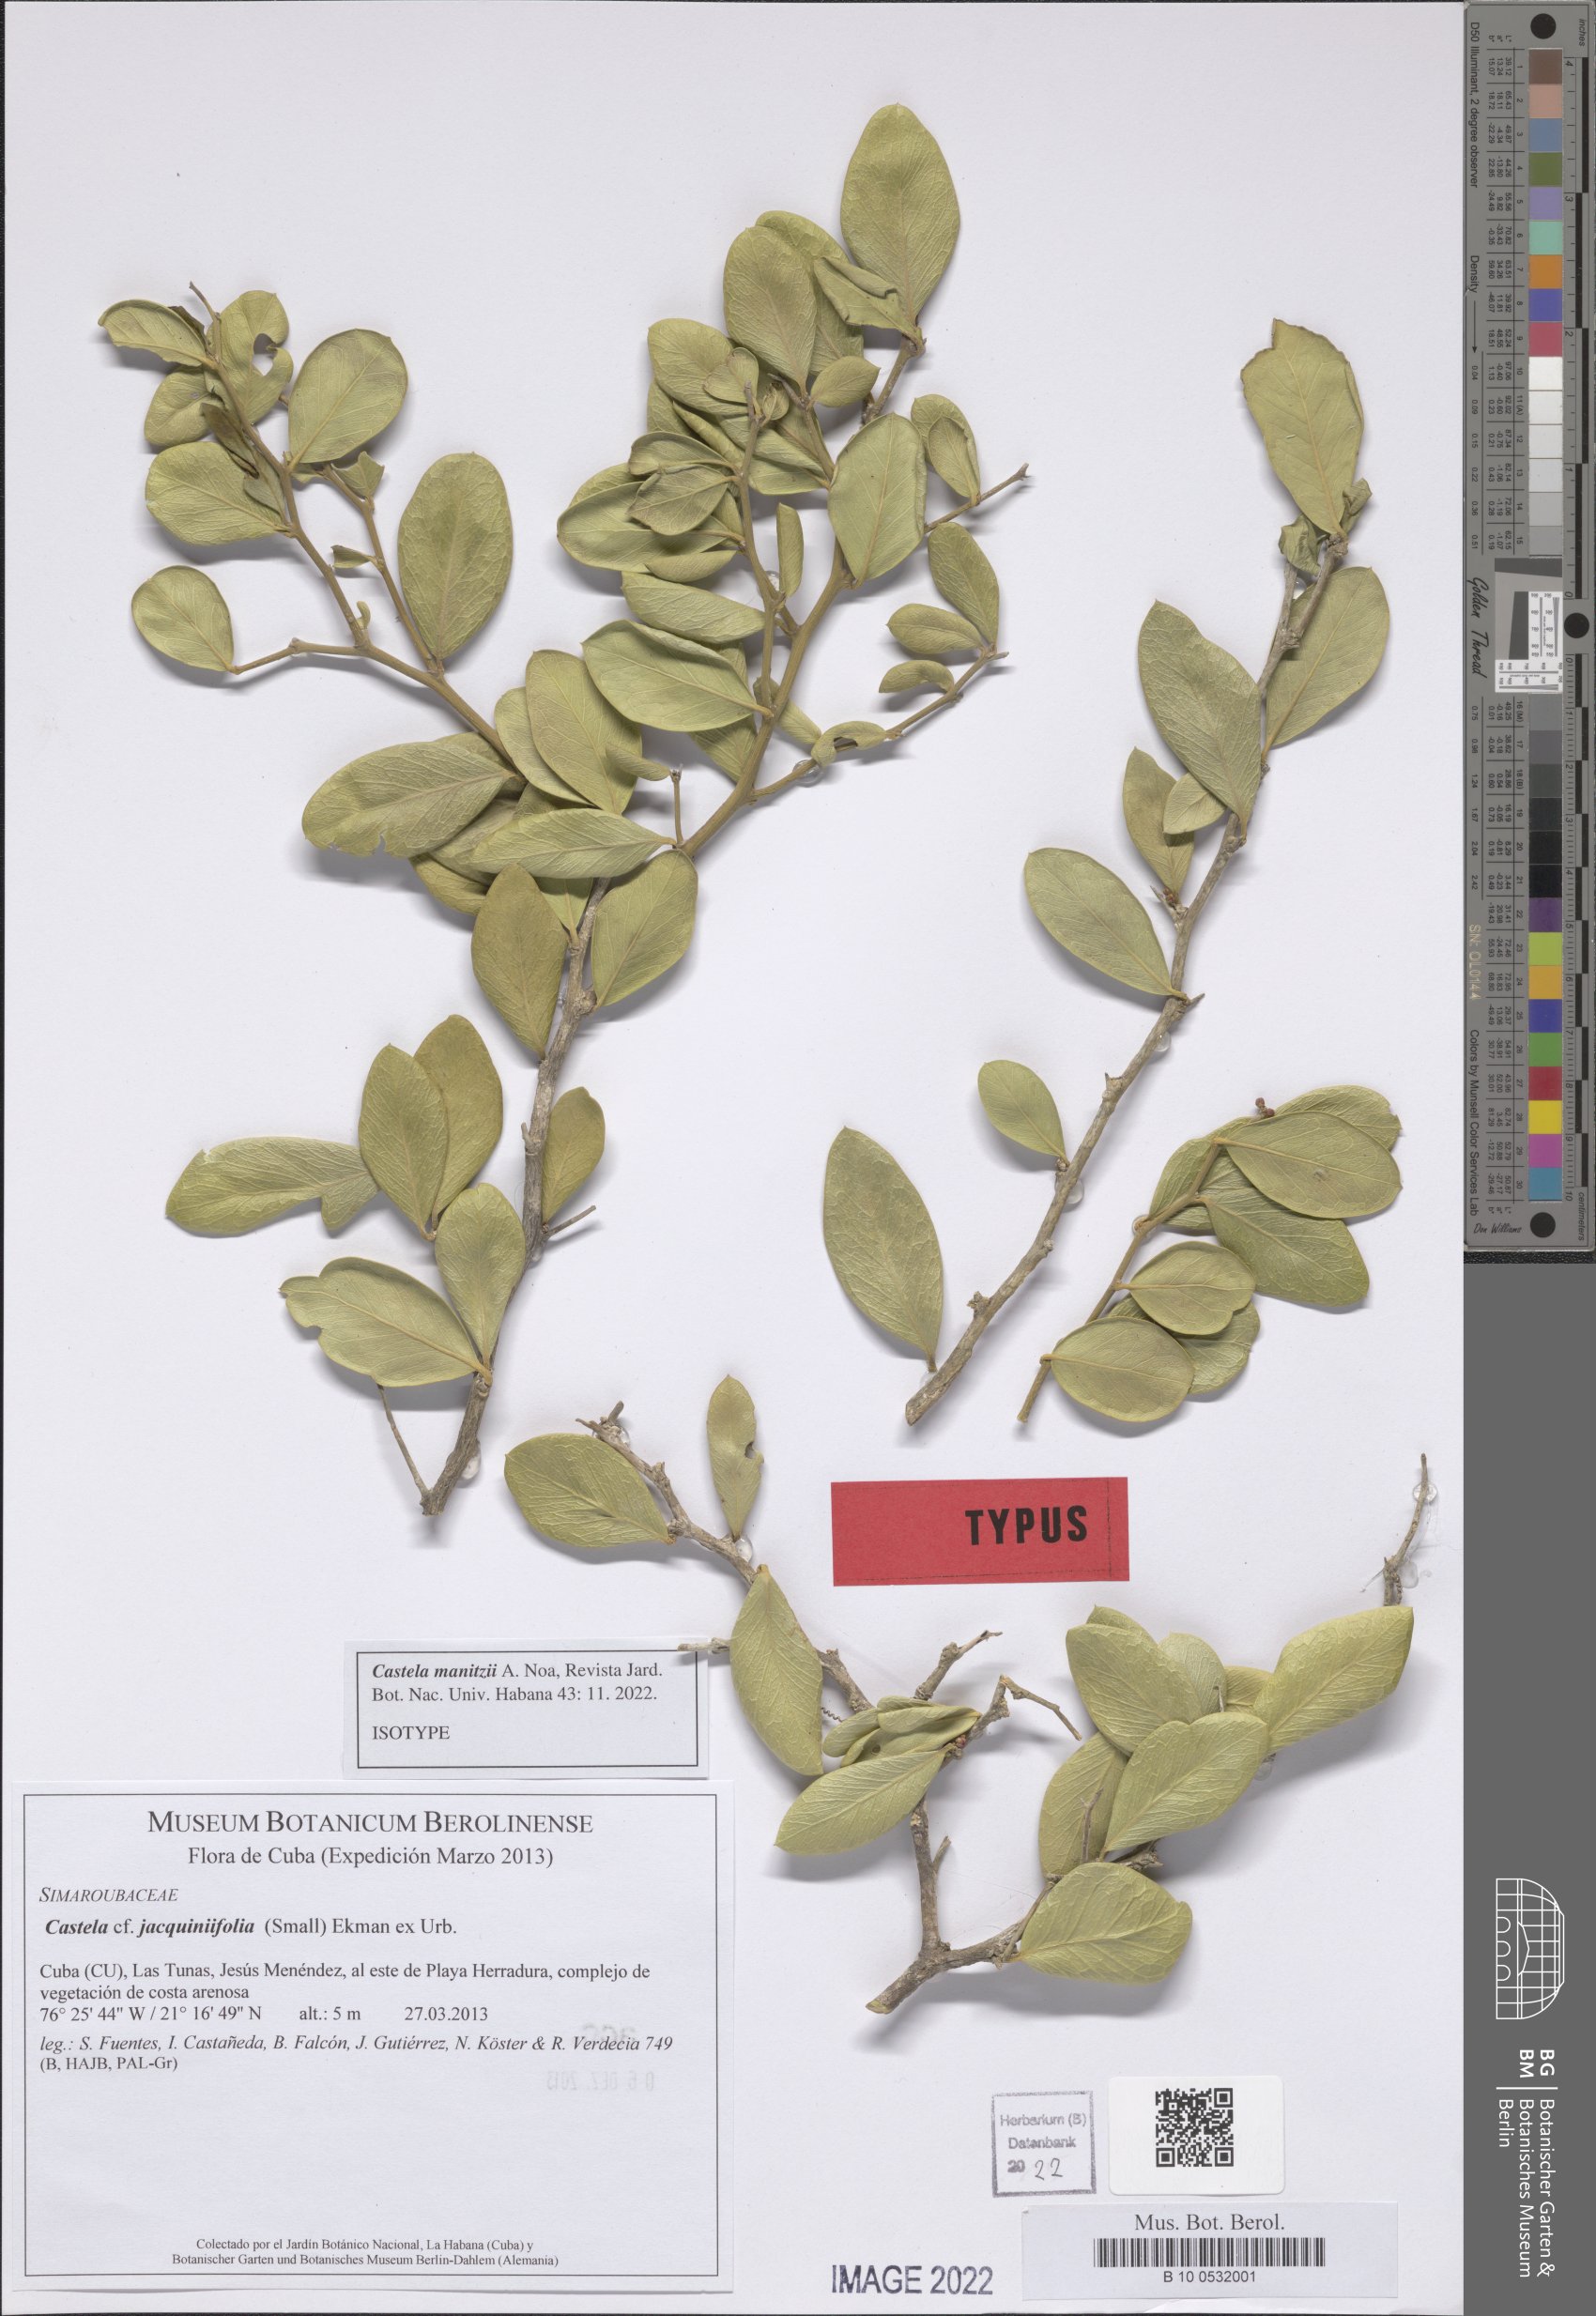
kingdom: Plantae
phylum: Tracheophyta
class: Magnoliopsida
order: Sapindales
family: Simaroubaceae
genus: Castela
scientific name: Castela manitzii
